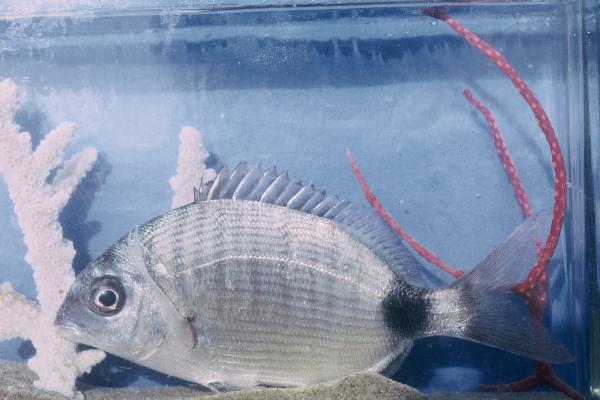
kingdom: Animalia
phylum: Chordata
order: Perciformes
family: Sparidae
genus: Diplodus
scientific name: Diplodus capensis
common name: Blacktail
